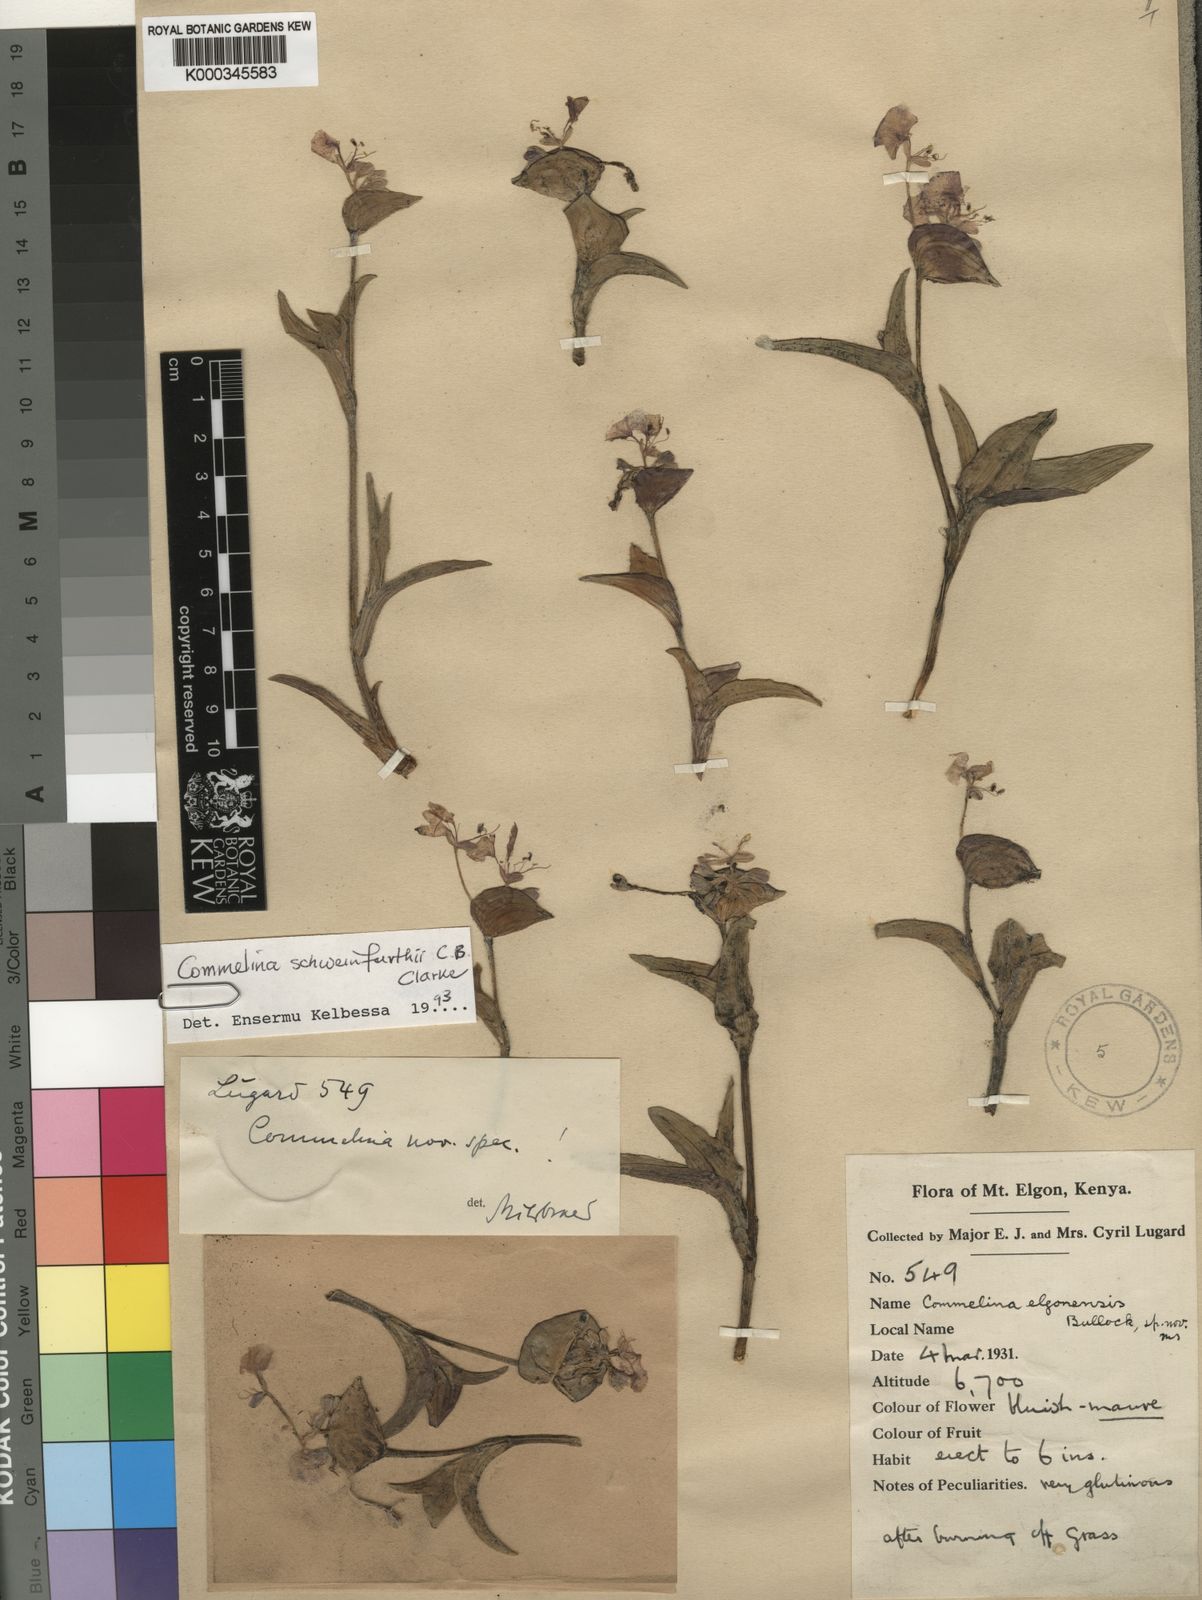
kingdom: Plantae
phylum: Tracheophyta
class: Liliopsida
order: Commelinales
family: Commelinaceae
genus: Commelina
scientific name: Commelina schweinfurthii
